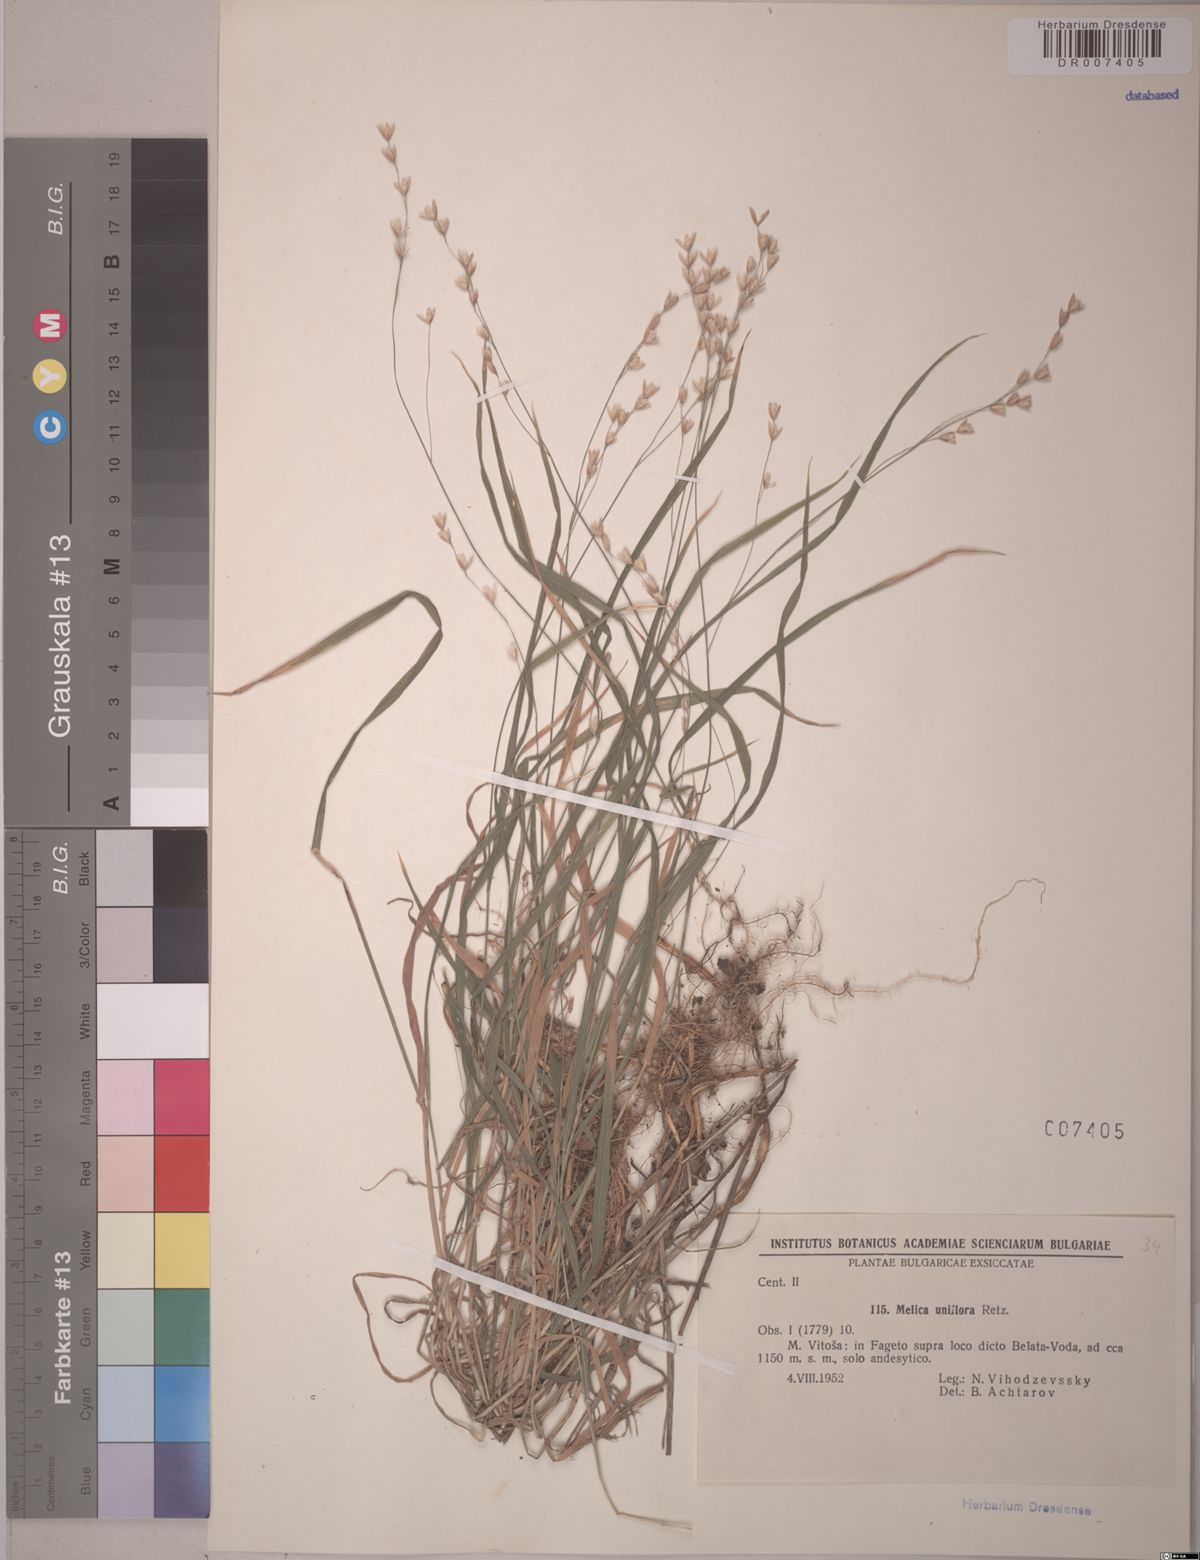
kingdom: Plantae
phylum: Tracheophyta
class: Liliopsida
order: Poales
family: Poaceae
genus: Melica
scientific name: Melica uniflora
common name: Wood melick
